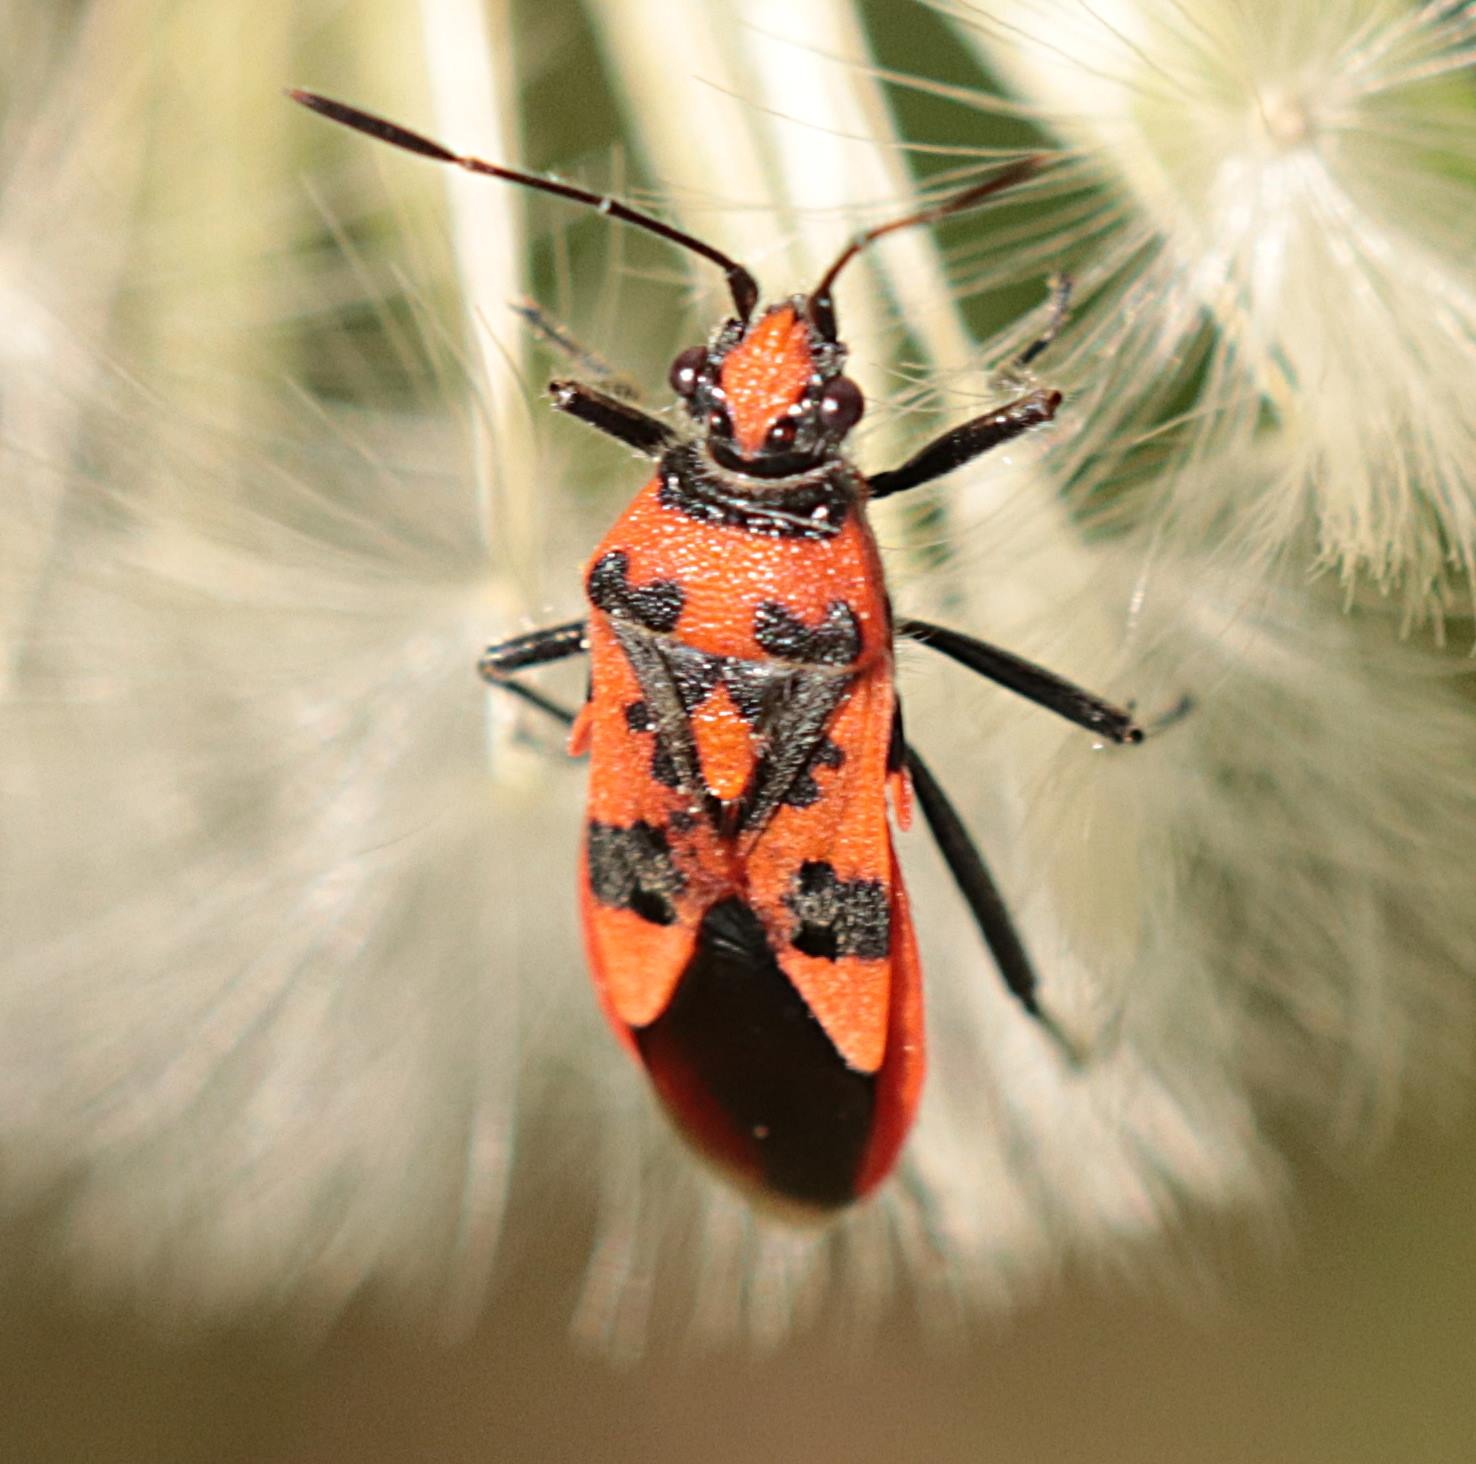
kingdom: Animalia
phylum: Arthropoda
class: Insecta
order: Hemiptera
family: Rhopalidae
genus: Corizus
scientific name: Corizus hyoscyami
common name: Rød kanttæge
